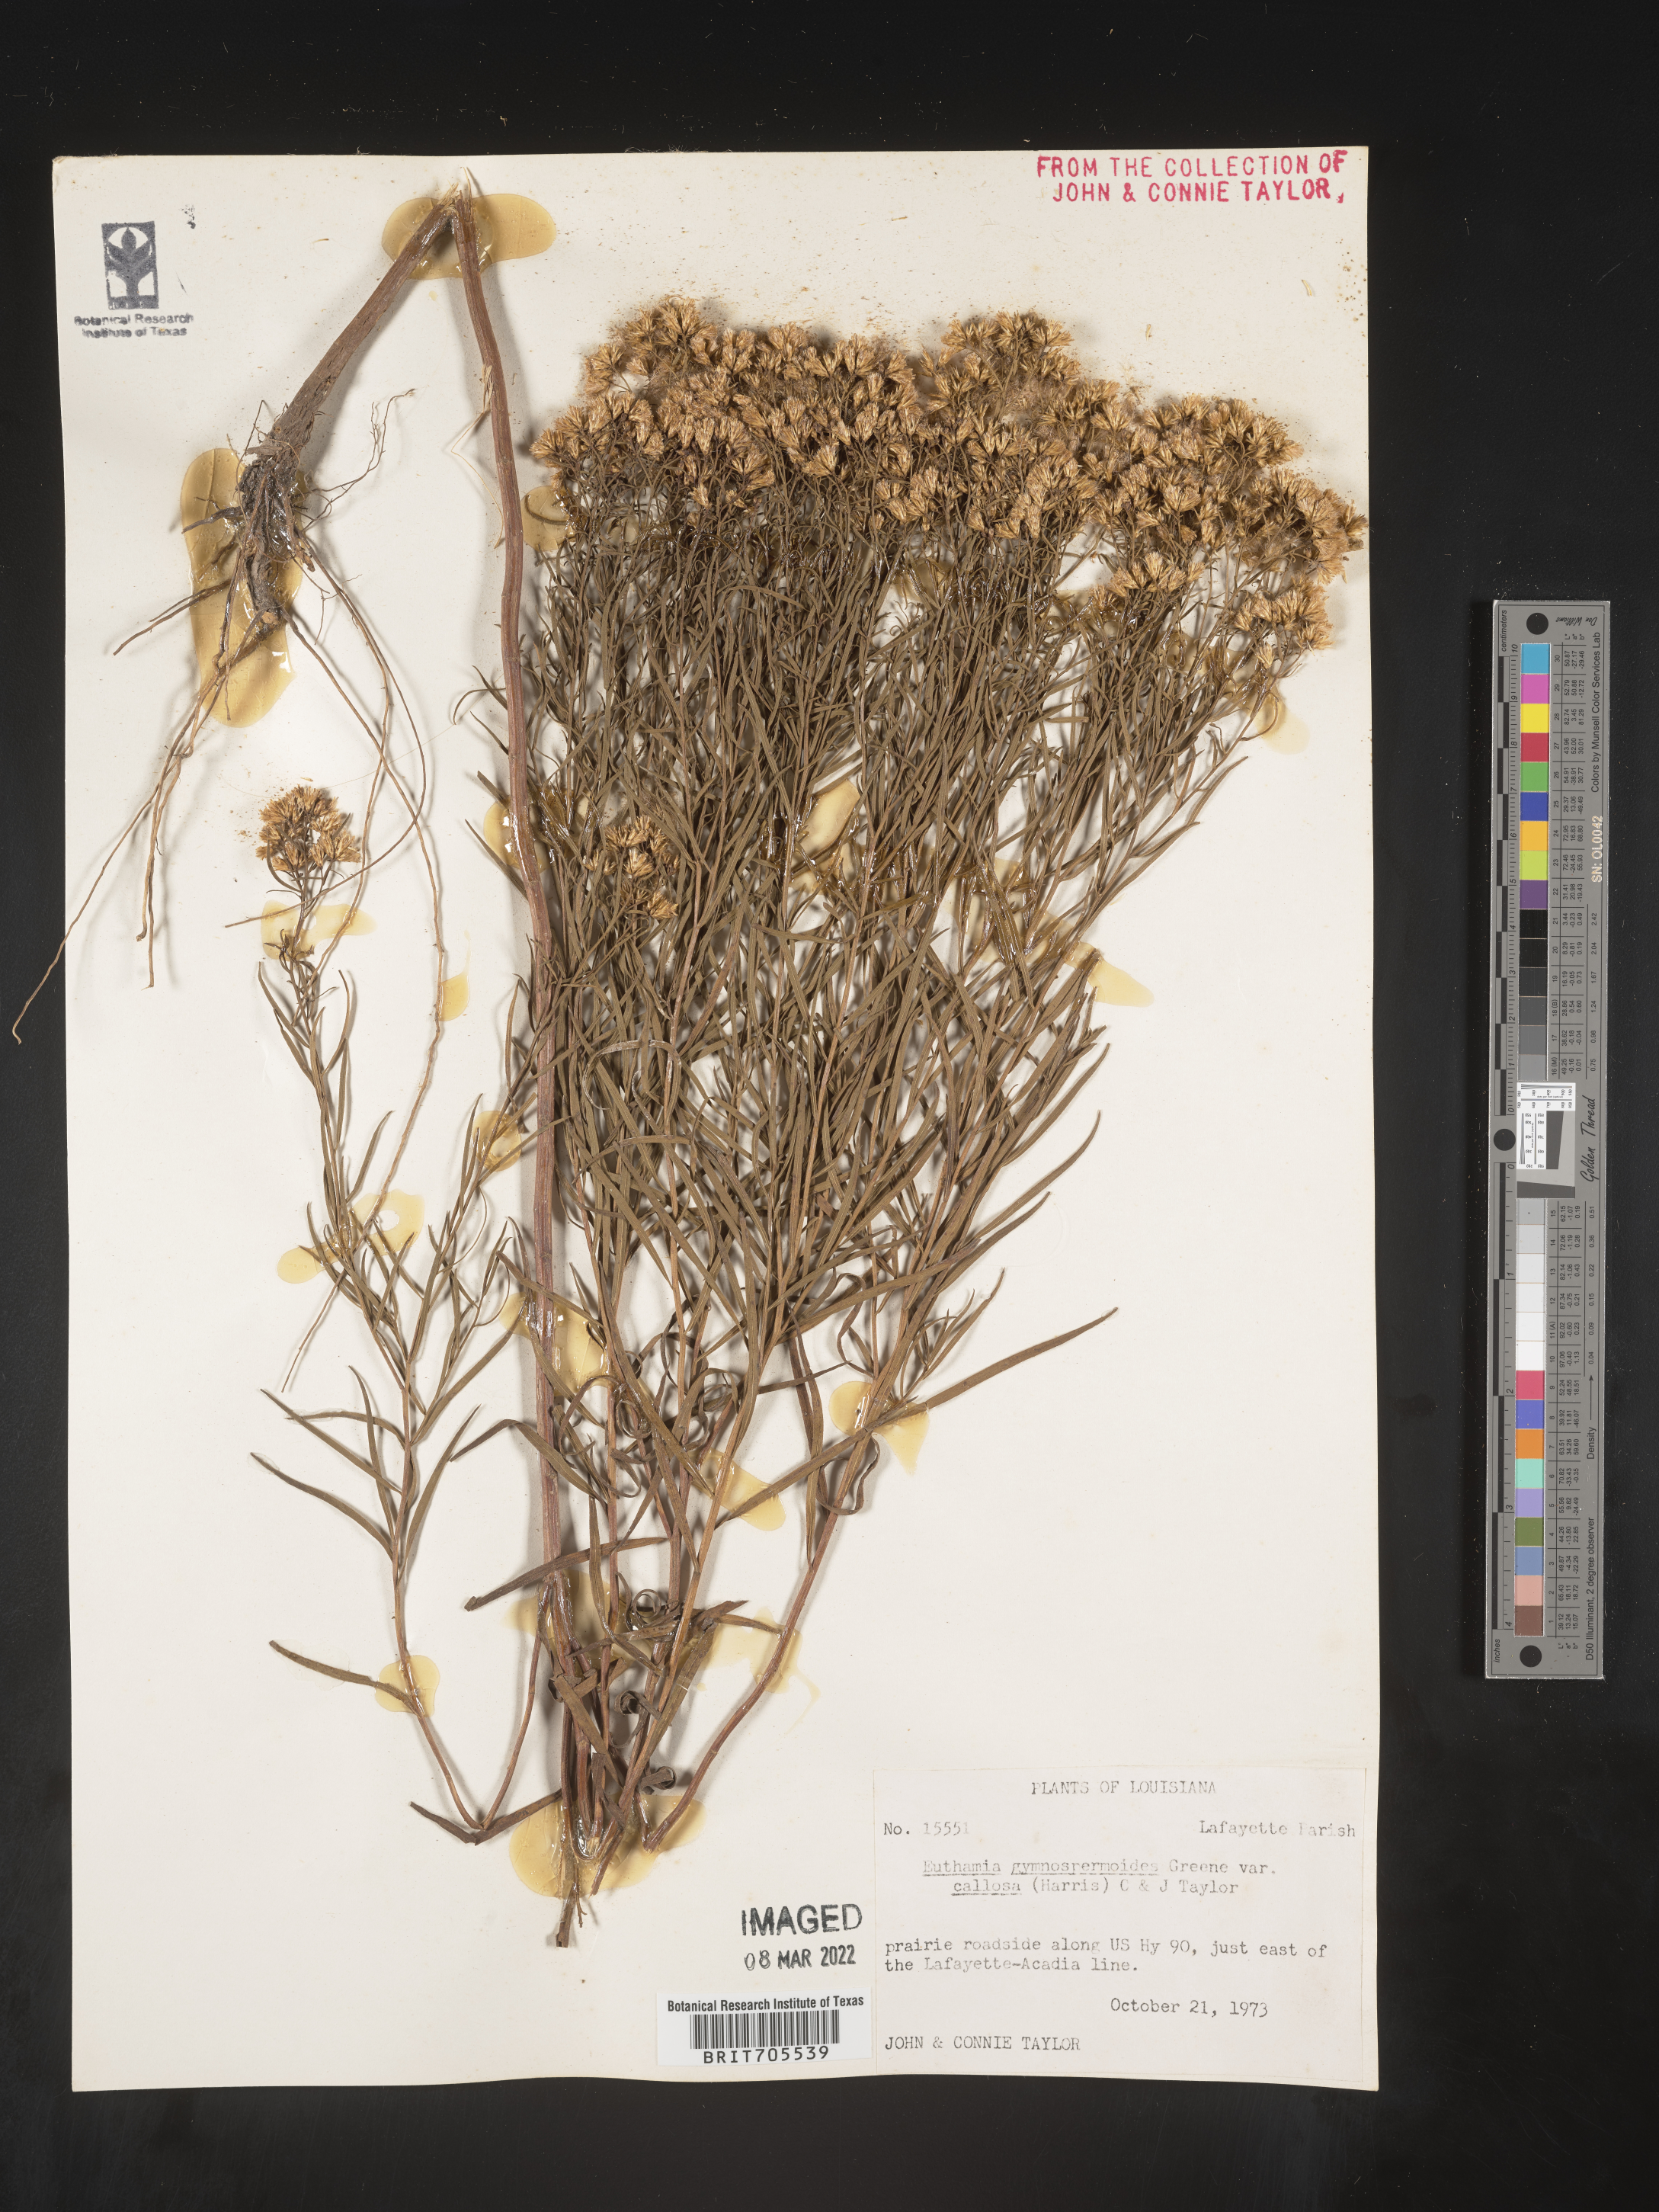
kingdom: Plantae
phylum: Tracheophyta
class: Magnoliopsida
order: Asterales
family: Asteraceae
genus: Euthamia
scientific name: Euthamia pulverulenta
